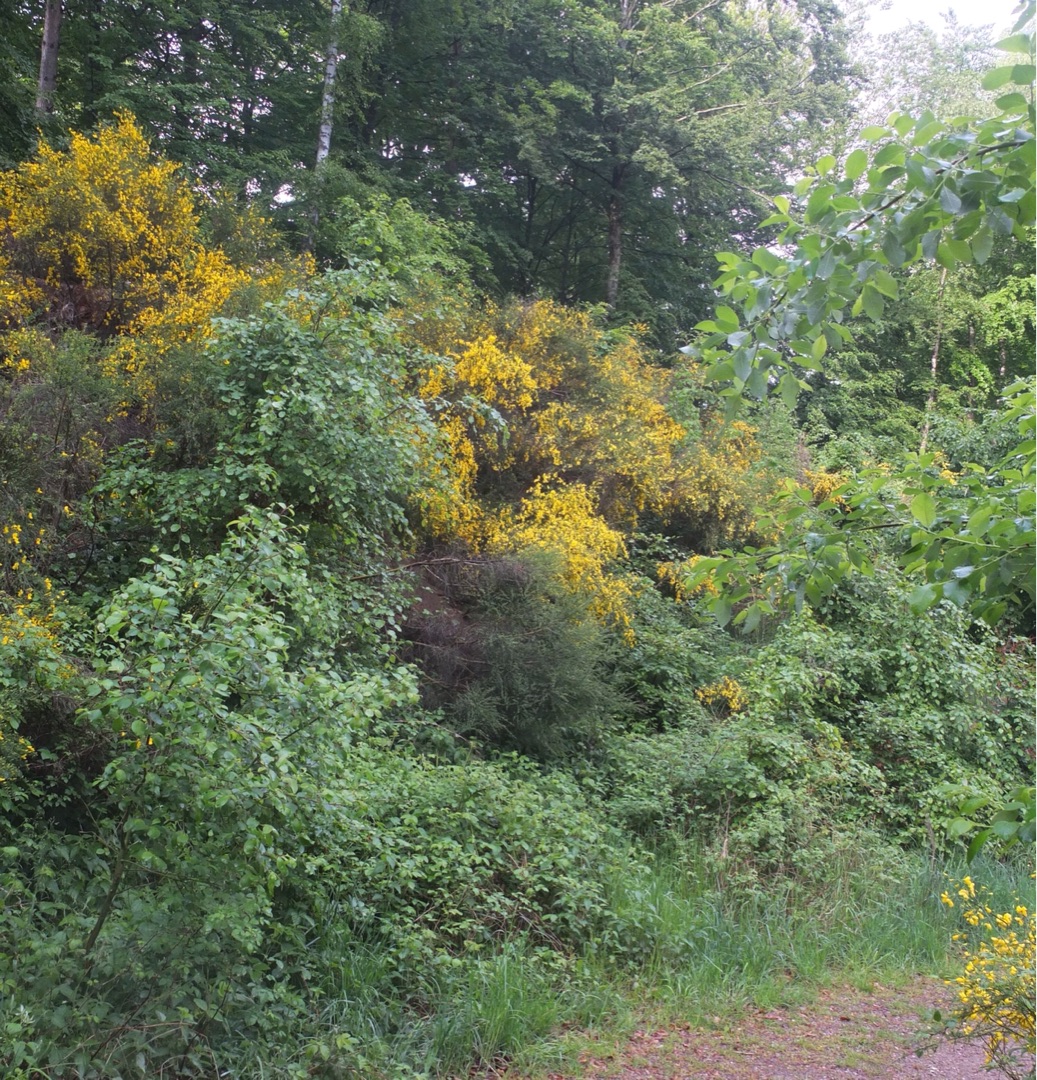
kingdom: Plantae
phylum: Tracheophyta
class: Magnoliopsida
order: Fabales
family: Fabaceae
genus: Cytisus
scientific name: Cytisus scoparius
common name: Almindelig gyvel
